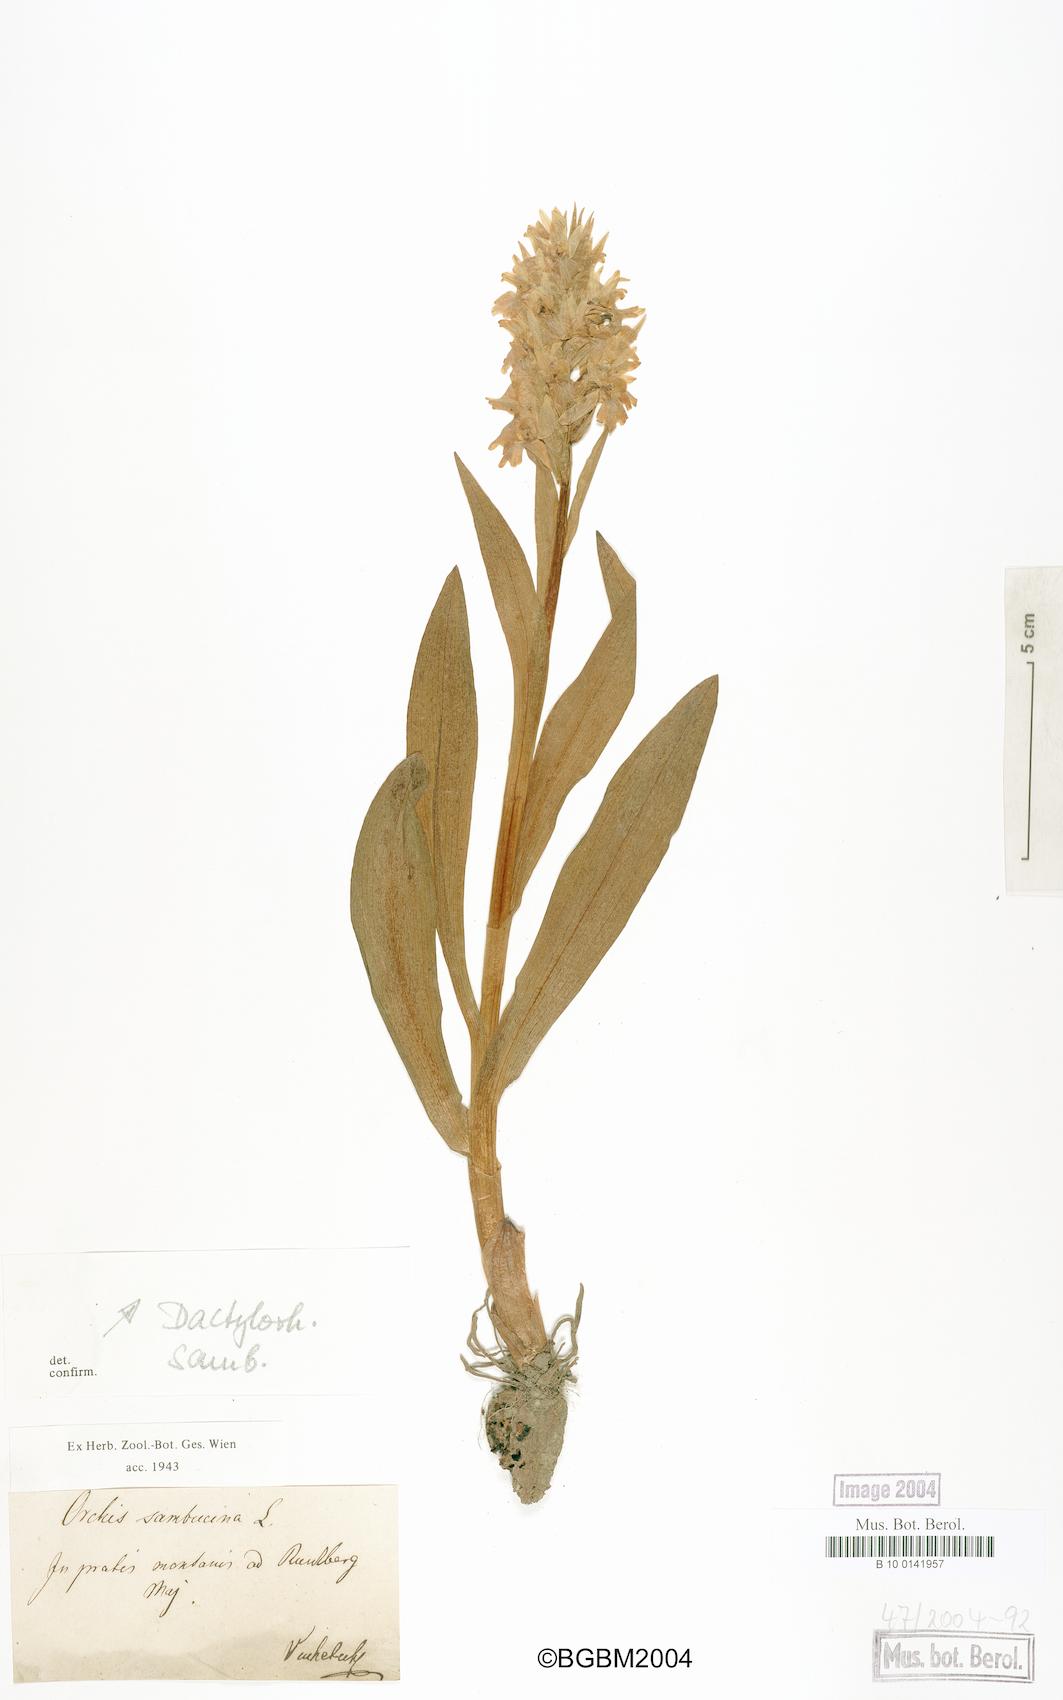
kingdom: Plantae
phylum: Tracheophyta
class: Liliopsida
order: Asparagales
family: Orchidaceae
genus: Dactylorhiza
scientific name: Dactylorhiza sambucina
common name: Elder-flowered orchid
